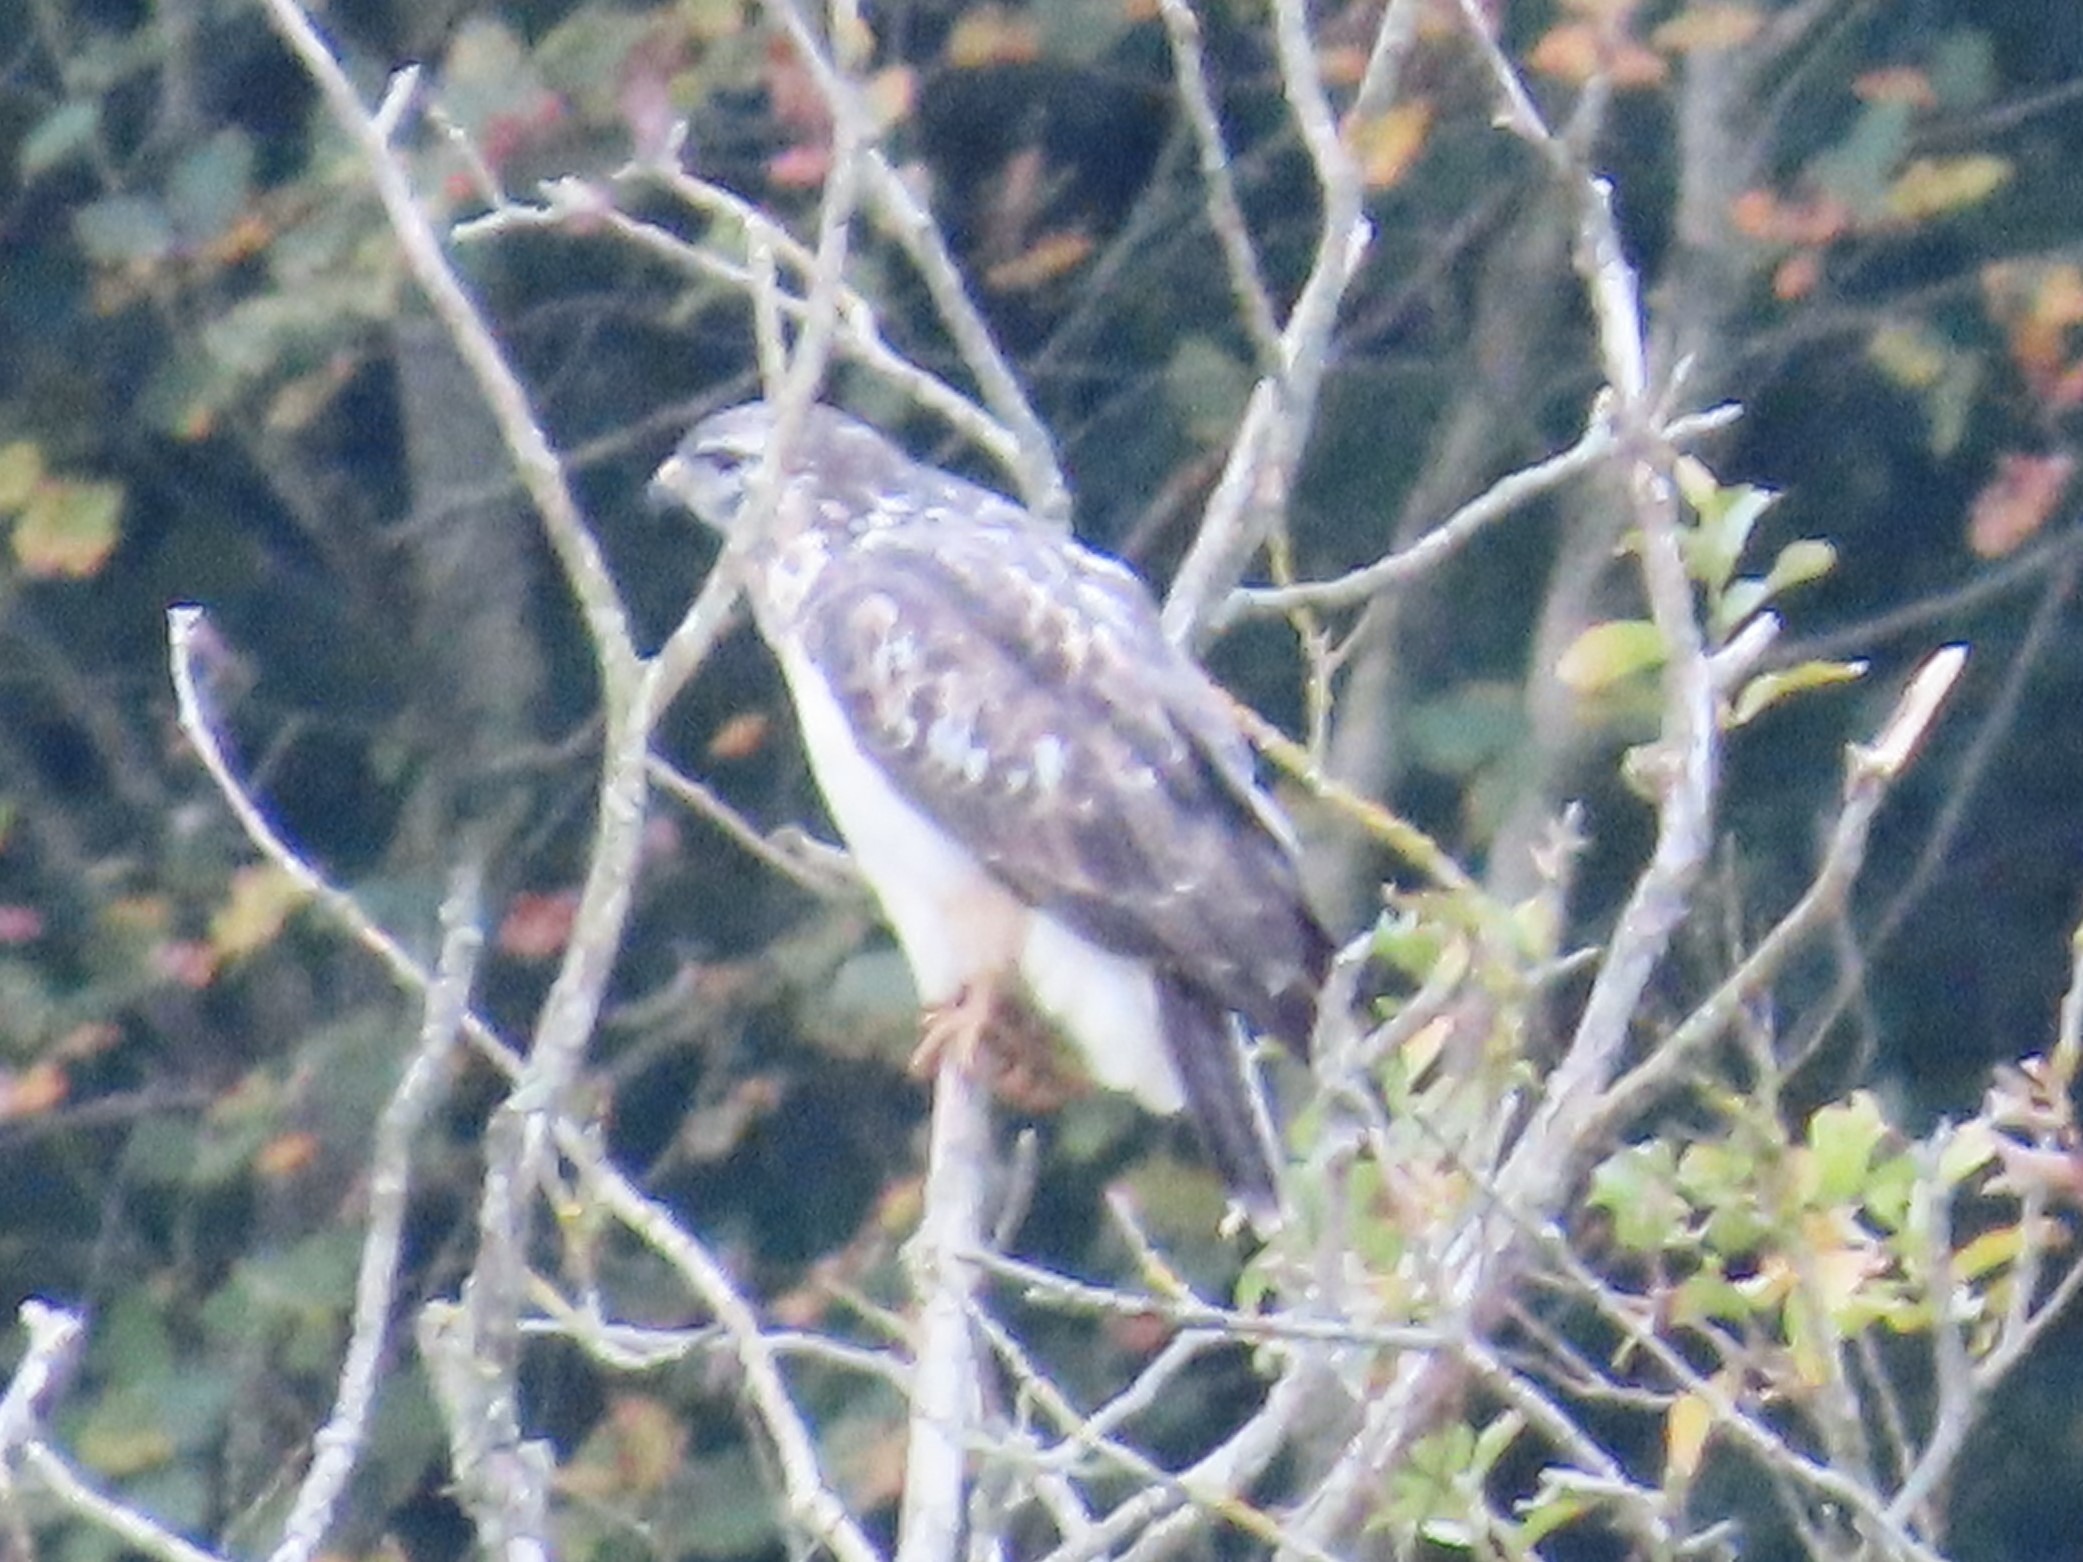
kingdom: Animalia
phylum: Chordata
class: Aves
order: Accipitriformes
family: Accipitridae
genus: Buteo
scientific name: Buteo buteo
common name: Musvåge
